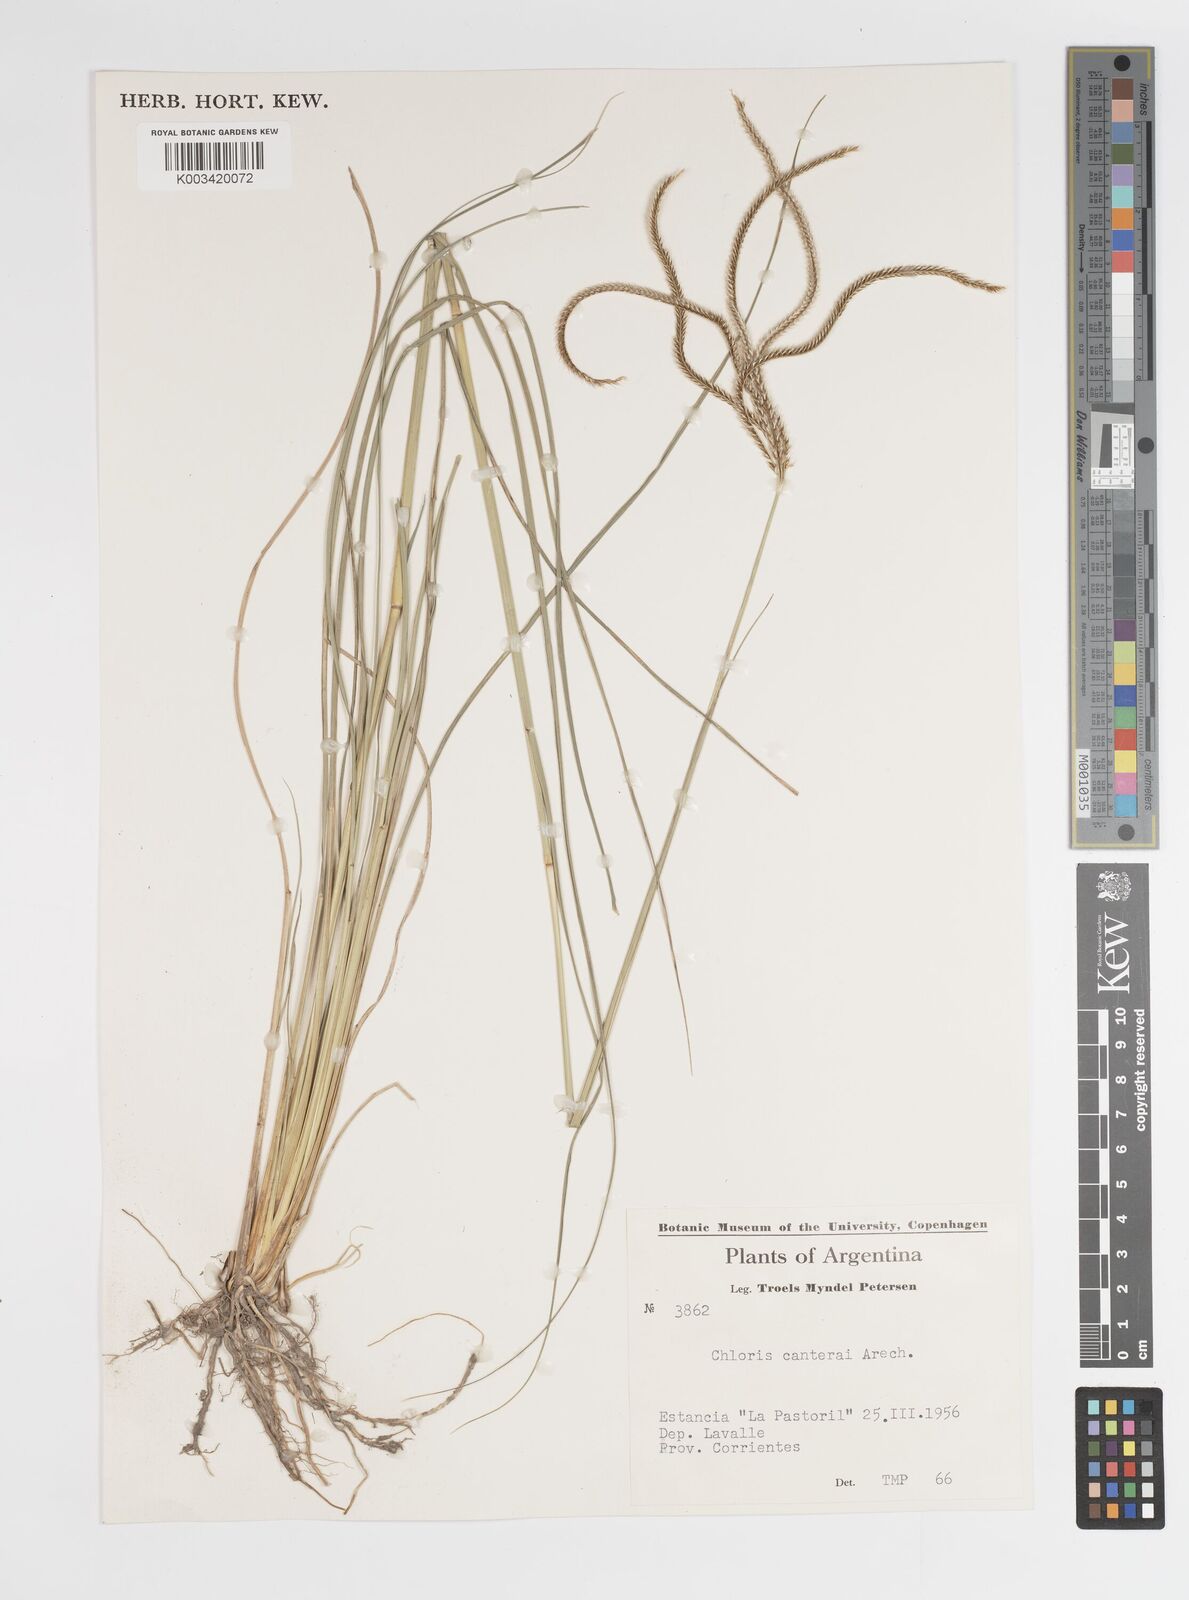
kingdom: Plantae
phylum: Tracheophyta
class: Liliopsida
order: Poales
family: Poaceae
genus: Stapfochloa
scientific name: Stapfochloa canterae
